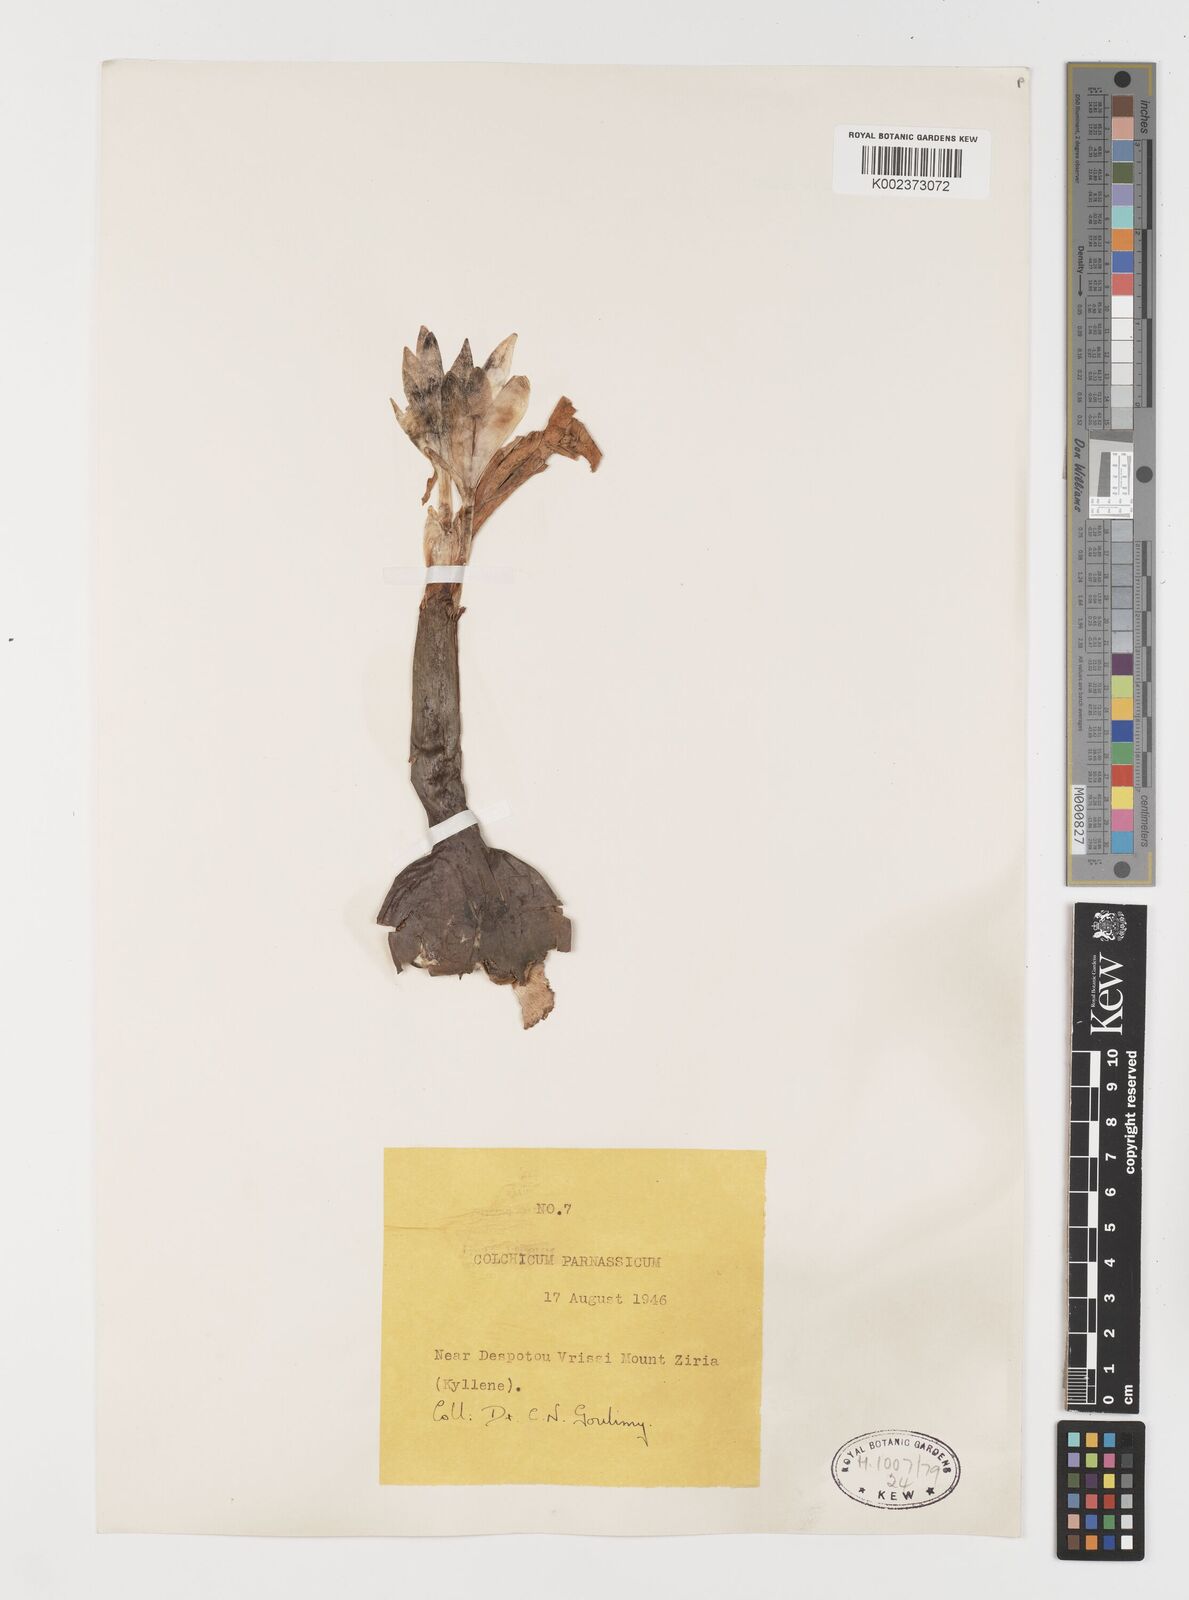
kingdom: Plantae
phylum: Tracheophyta
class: Liliopsida
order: Liliales
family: Colchicaceae
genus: Colchicum
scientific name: Colchicum parnassicum
